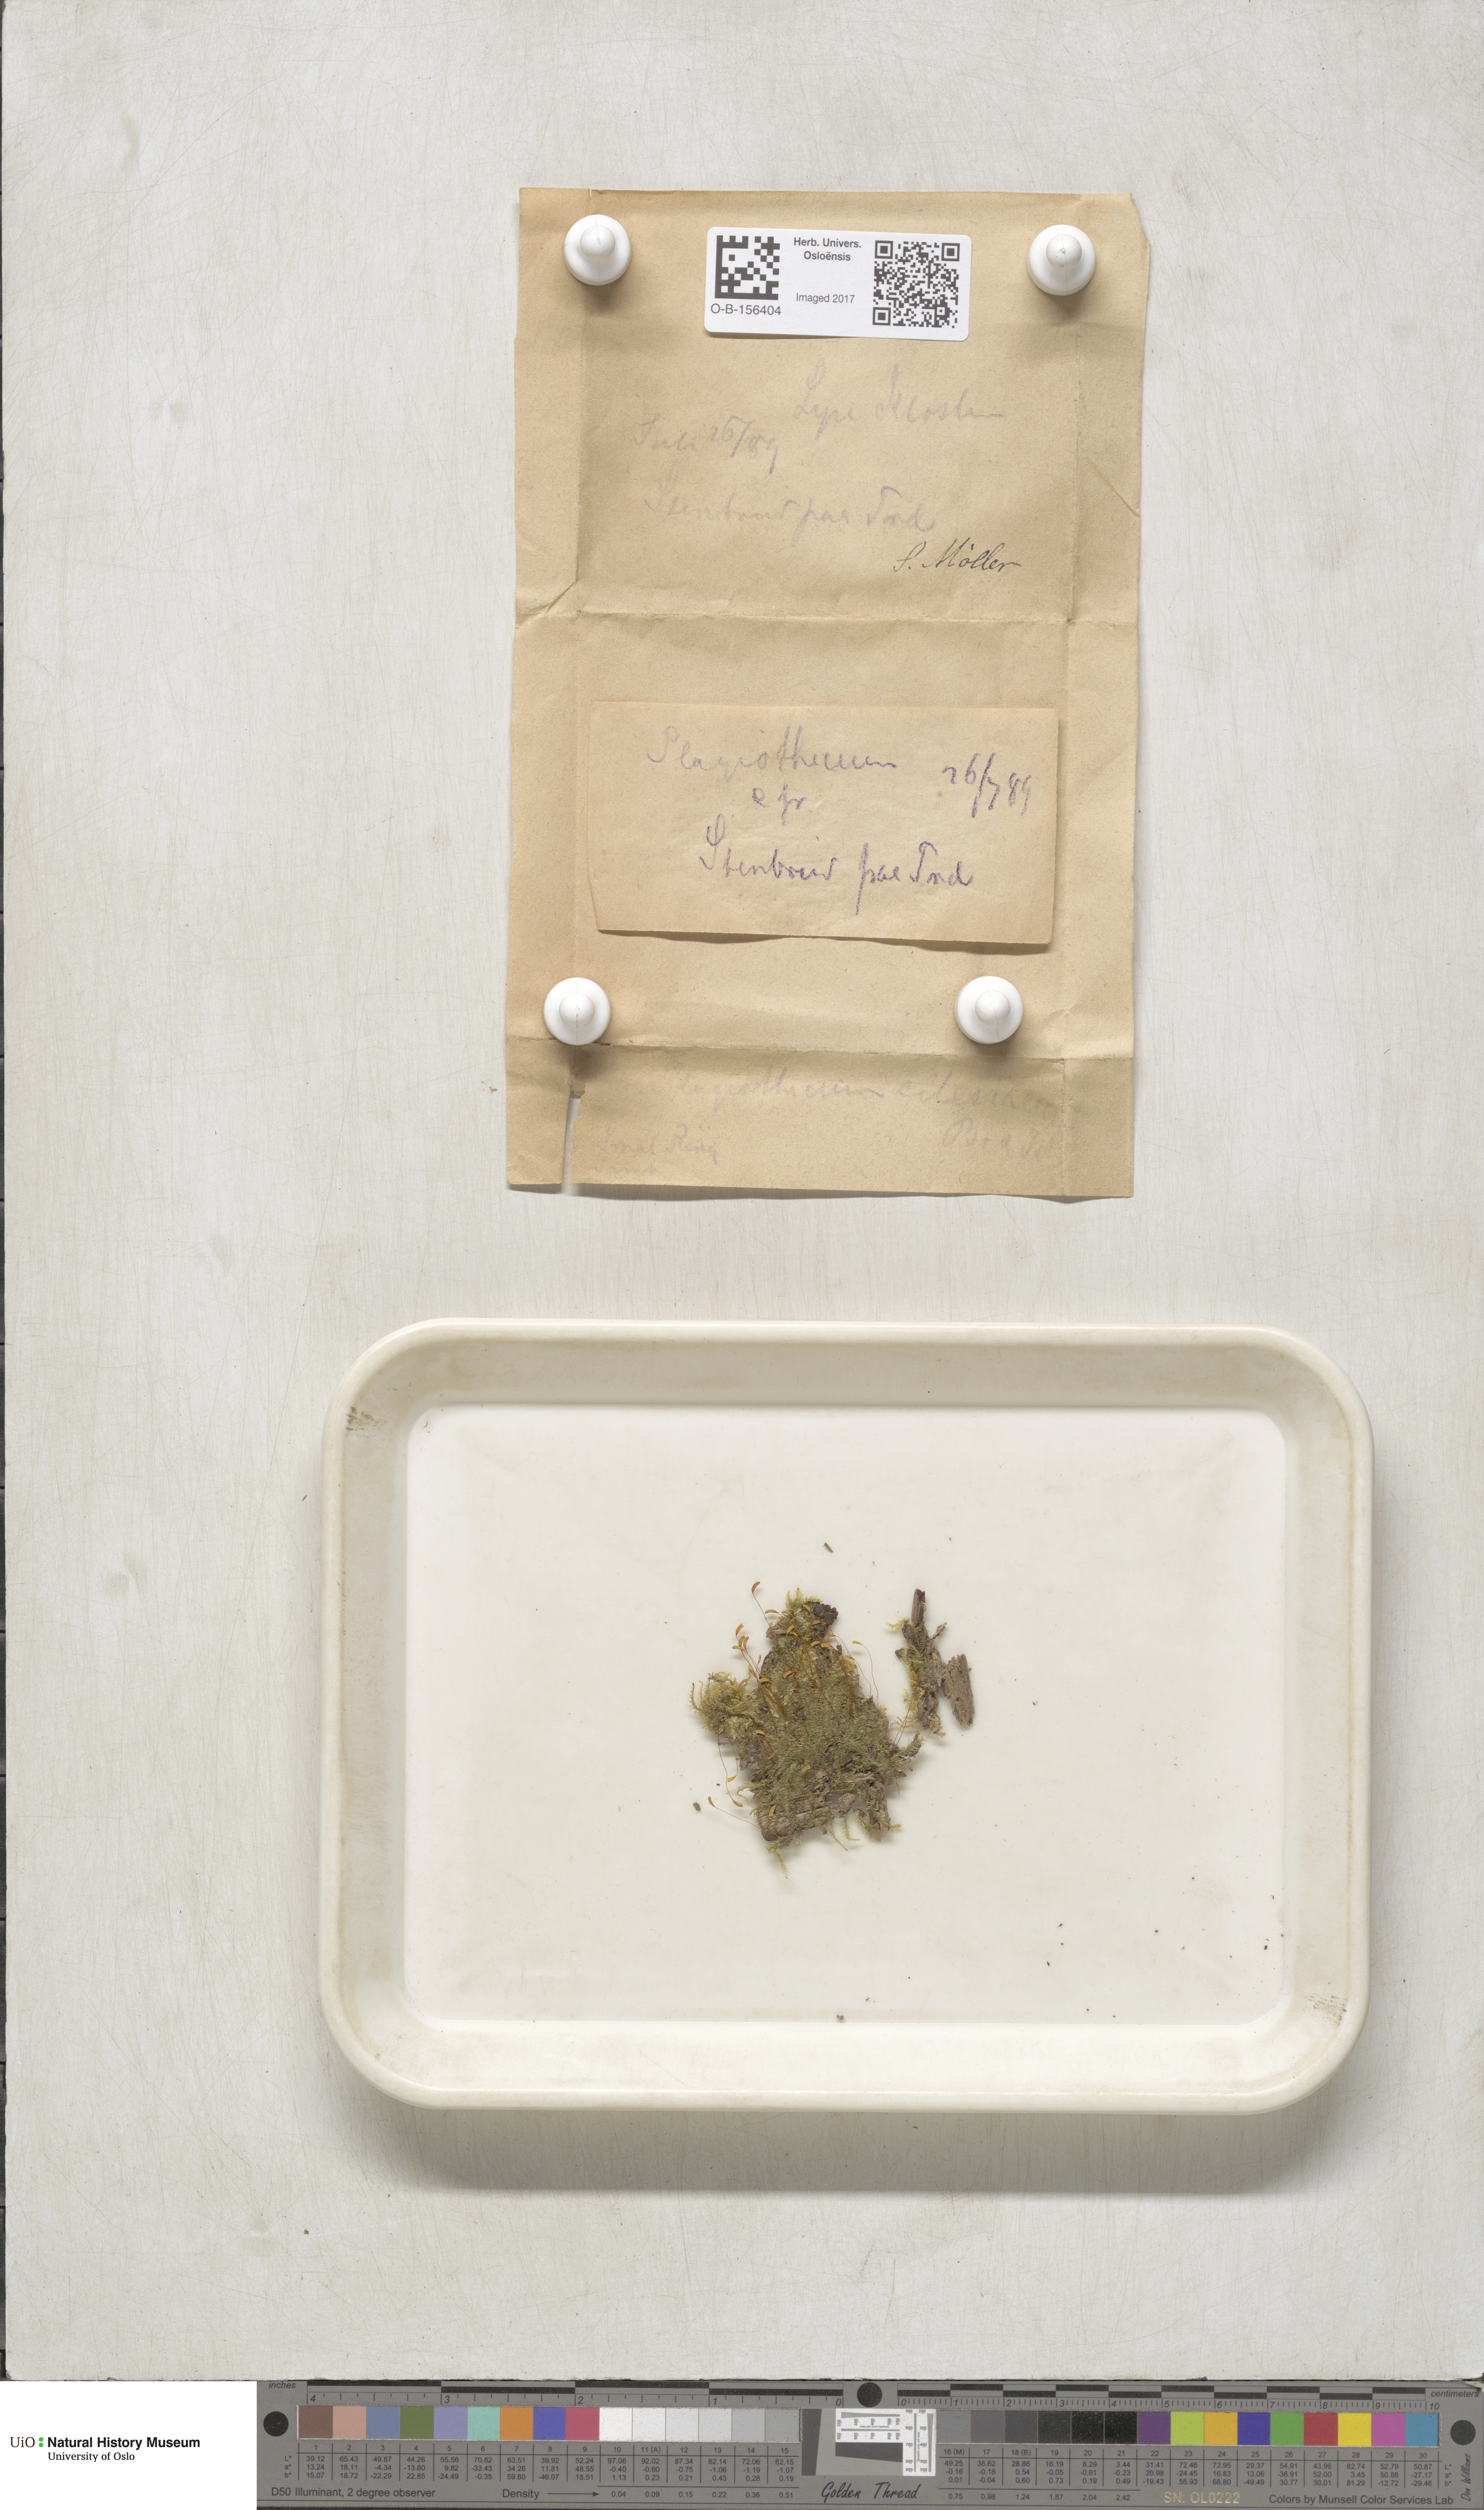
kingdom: Plantae
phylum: Bryophyta
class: Bryopsida
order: Hypnales
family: Plagiotheciaceae
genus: Plagiothecium
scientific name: Plagiothecium nemorale
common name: Woodsy silk-moss
